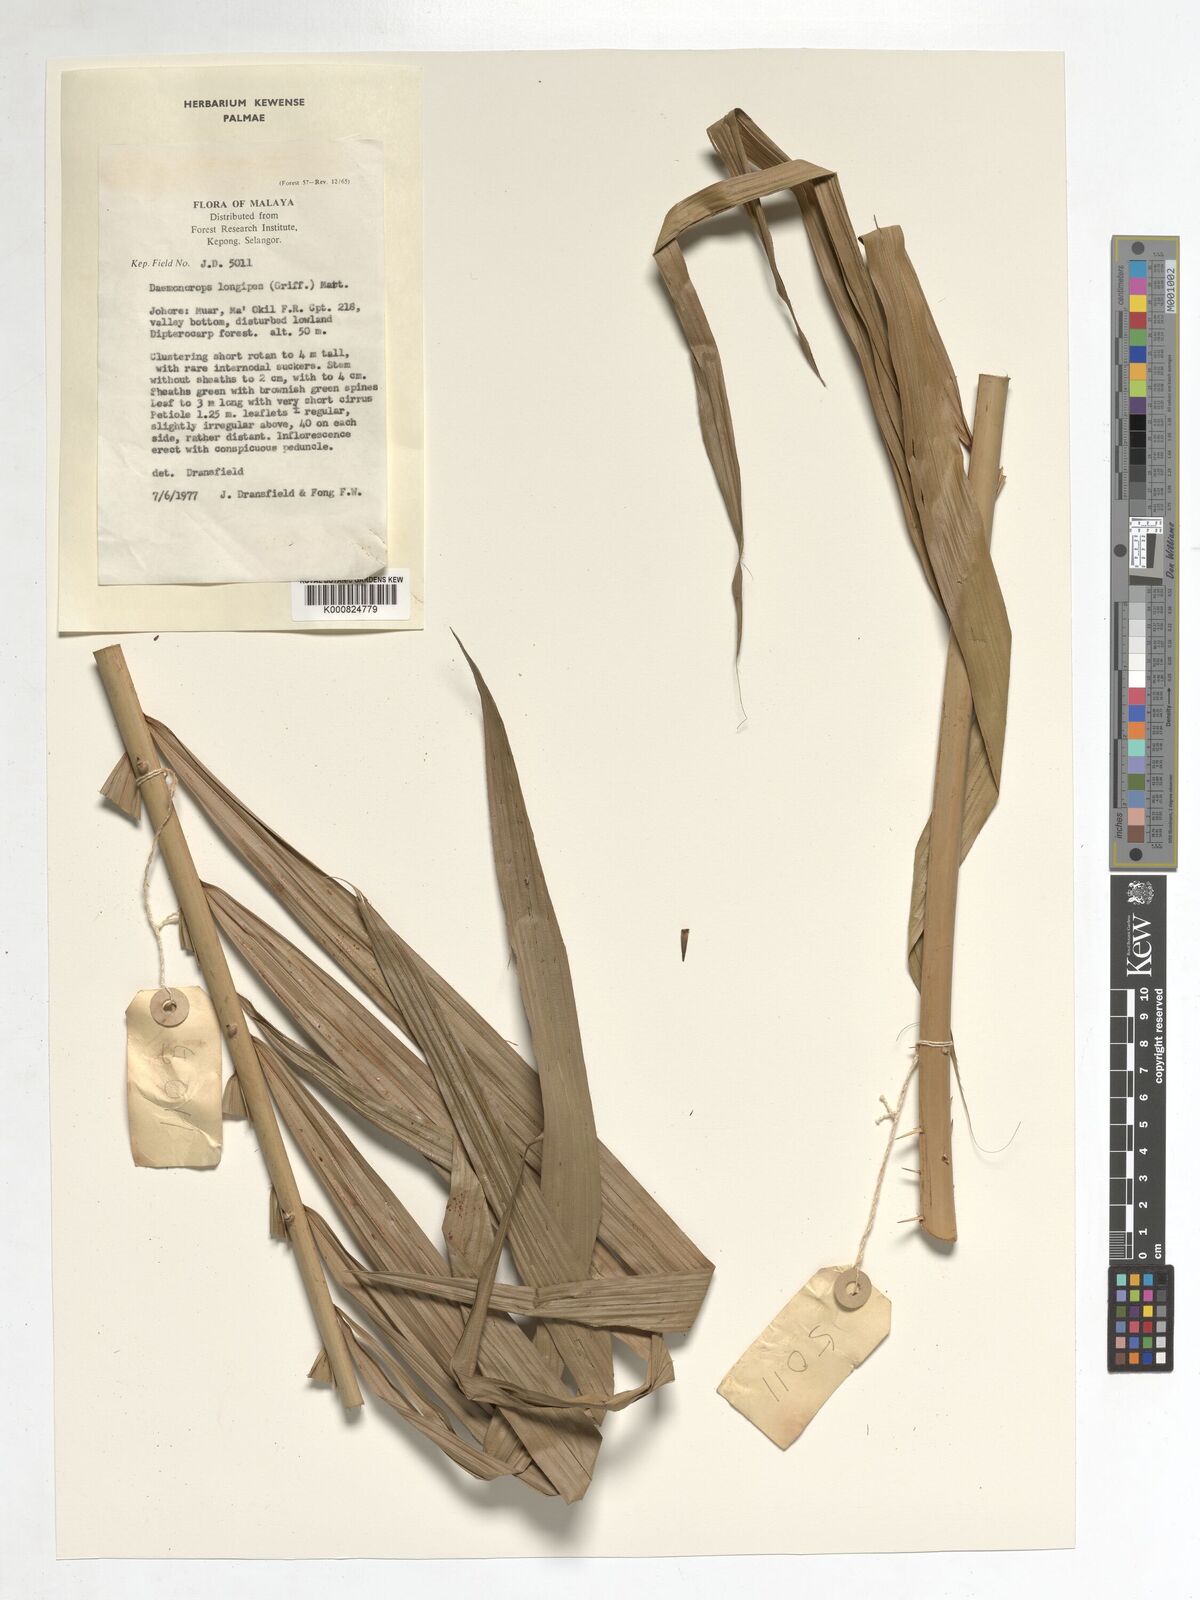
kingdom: Plantae
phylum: Tracheophyta
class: Liliopsida
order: Arecales
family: Arecaceae
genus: Calamus
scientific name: Calamus longipes
